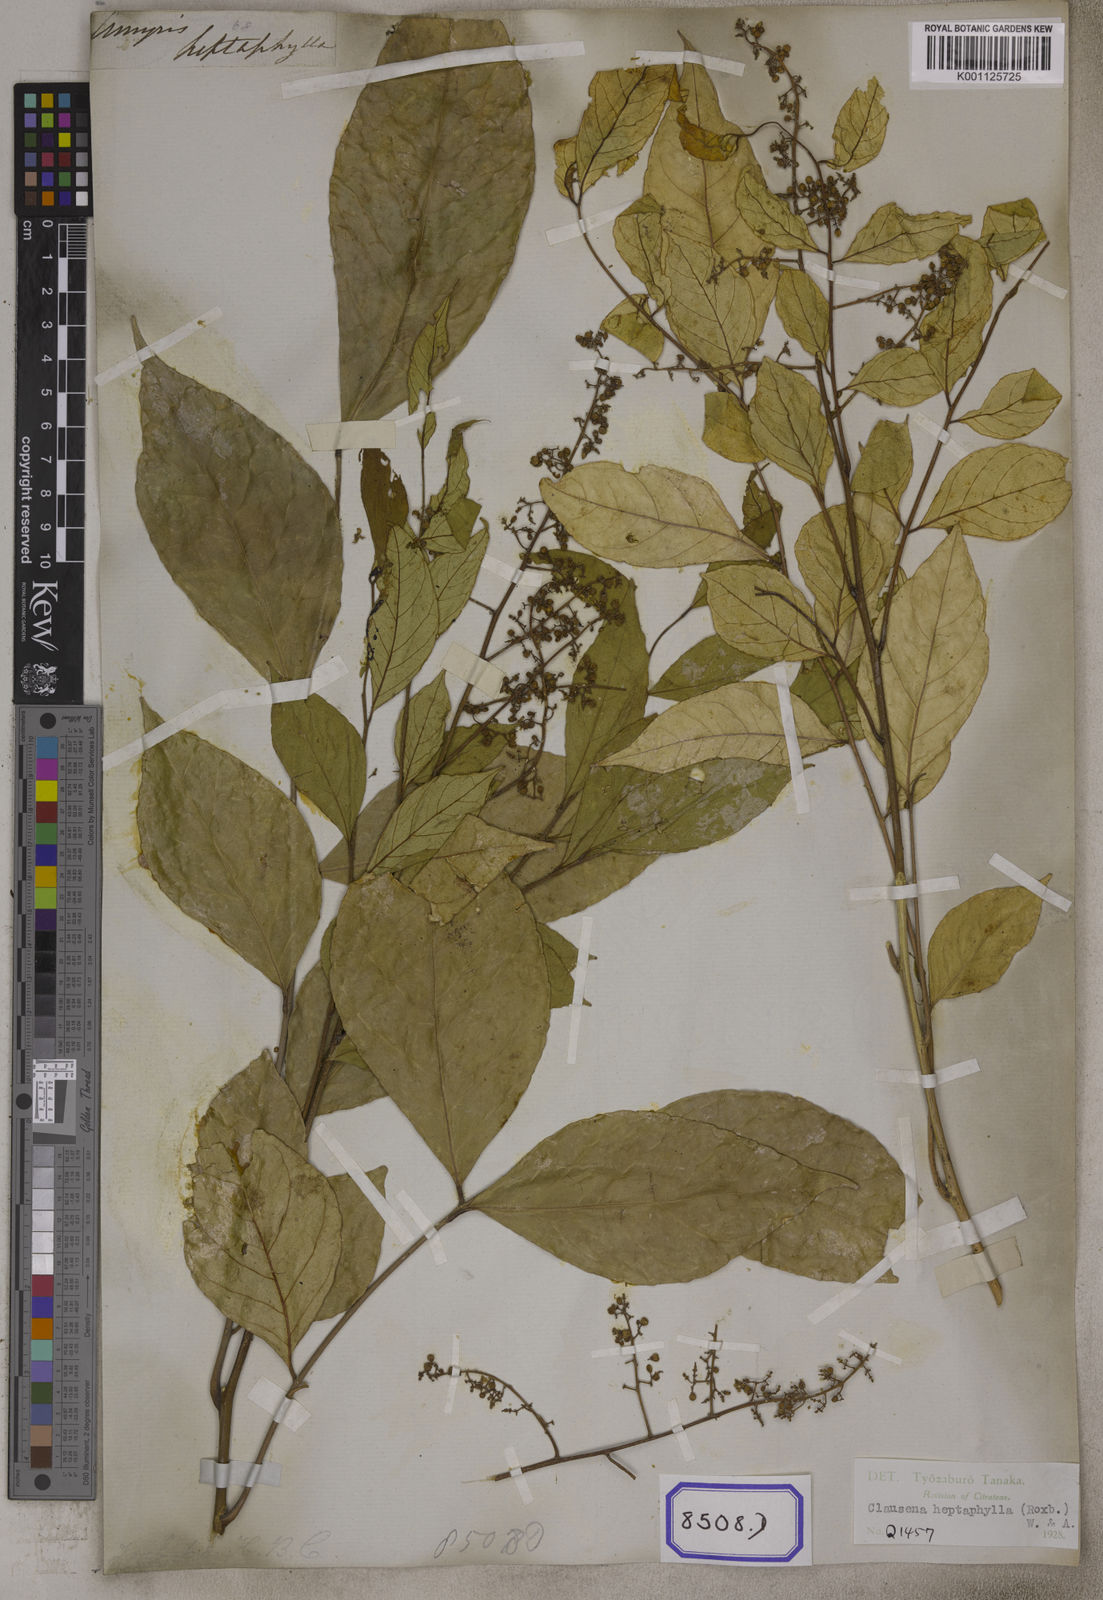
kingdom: Plantae
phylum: Tracheophyta
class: Magnoliopsida
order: Sapindales
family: Rutaceae
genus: Clausena
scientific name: Clausena heptaphylla
